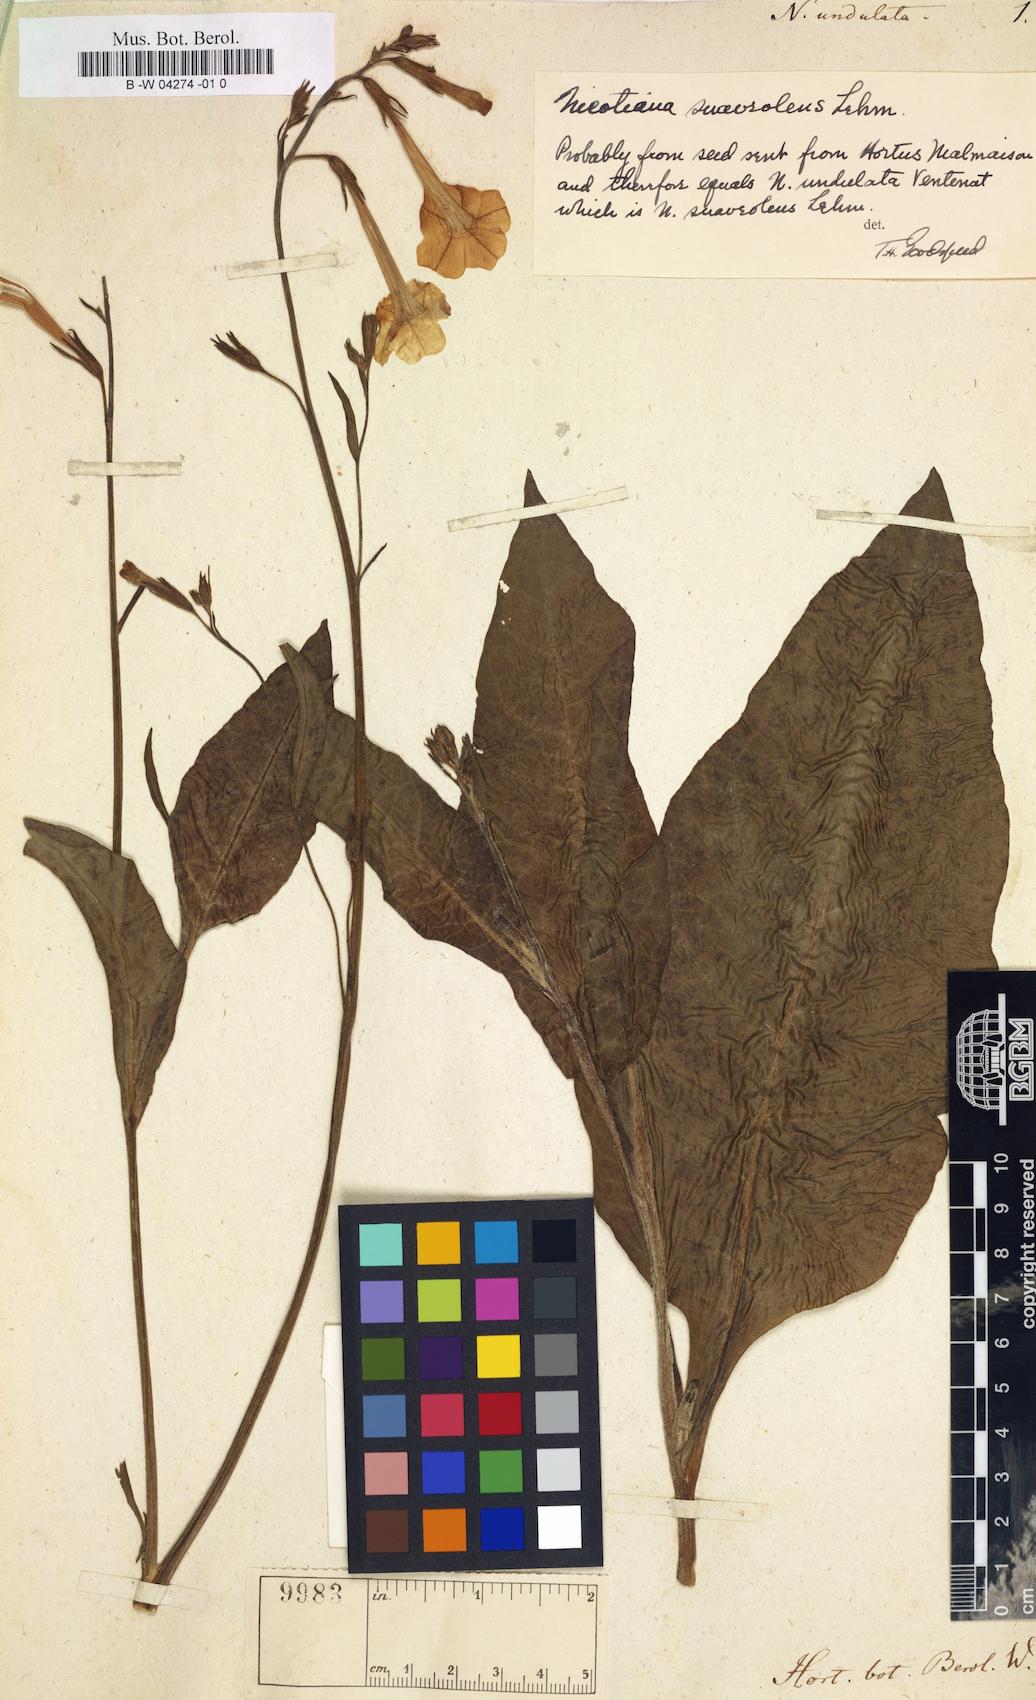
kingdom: Plantae
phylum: Tracheophyta
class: Magnoliopsida
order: Solanales
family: Solanaceae
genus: Nicotiana
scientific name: Nicotiana suaveolens
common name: Australian tobacco
